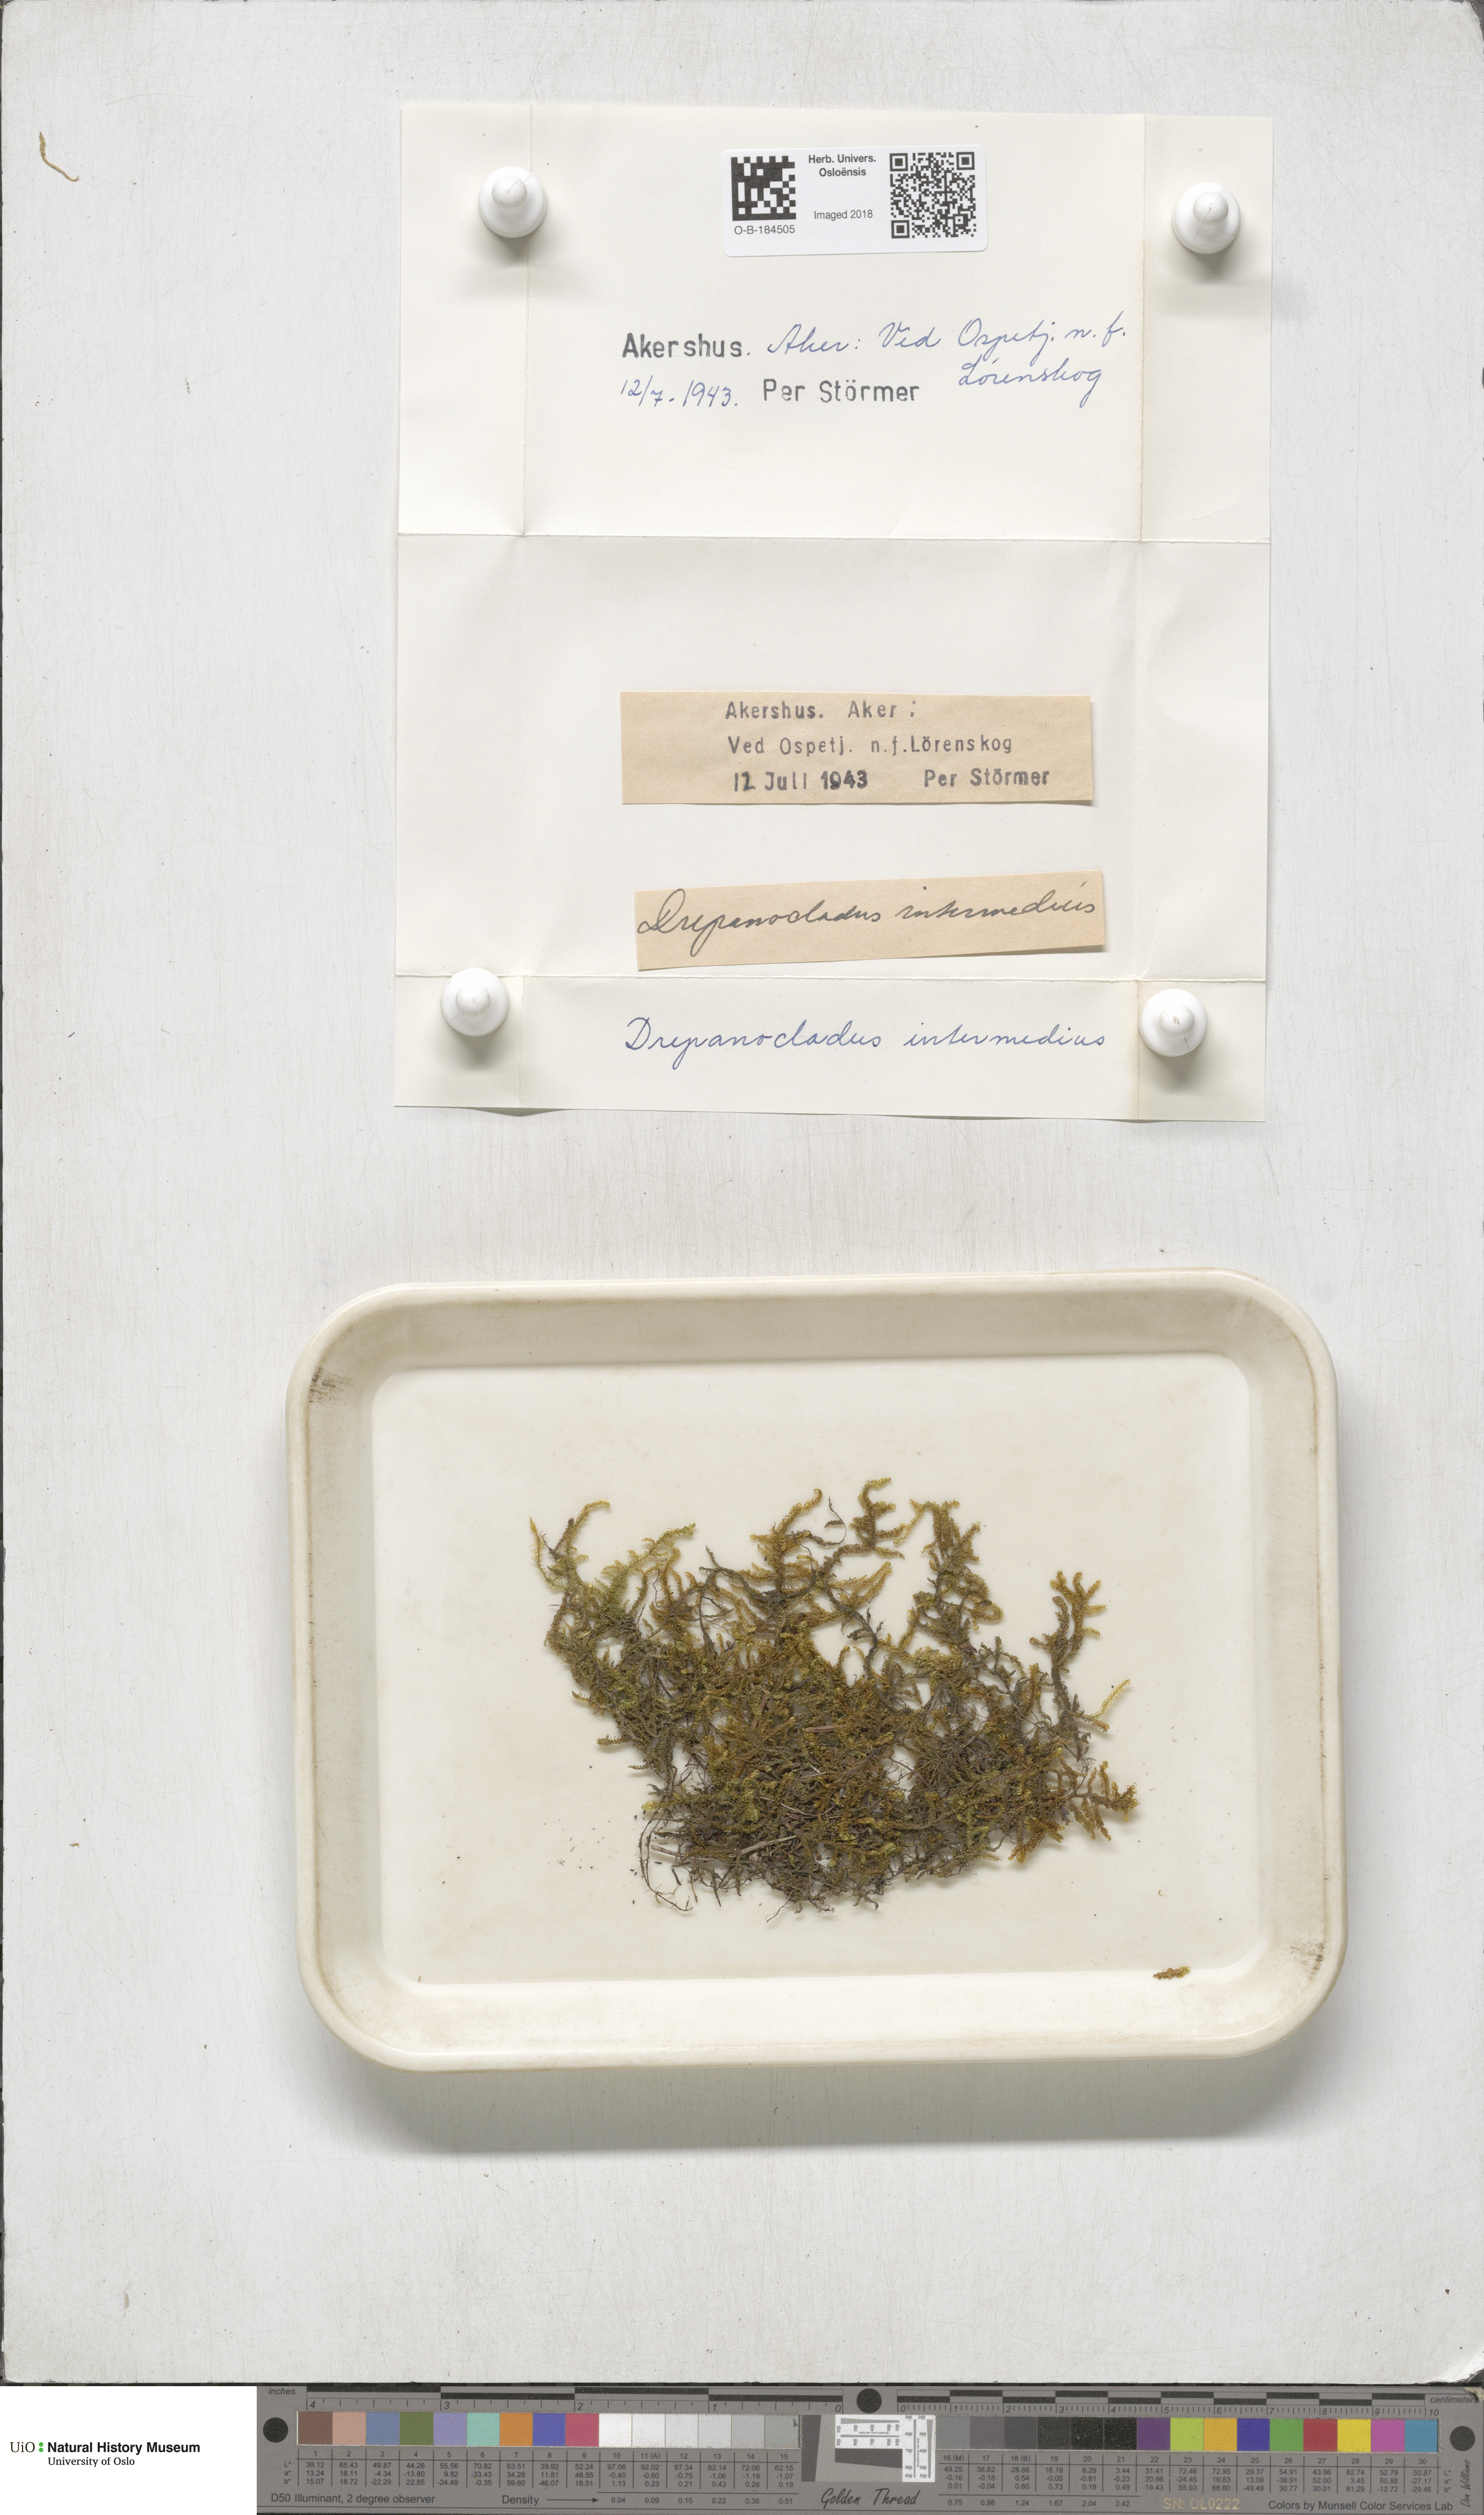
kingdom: Plantae
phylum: Bryophyta
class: Bryopsida
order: Hypnales
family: Scorpidiaceae
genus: Scorpidium
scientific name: Scorpidium cossonii
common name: Cosson's hook moss
